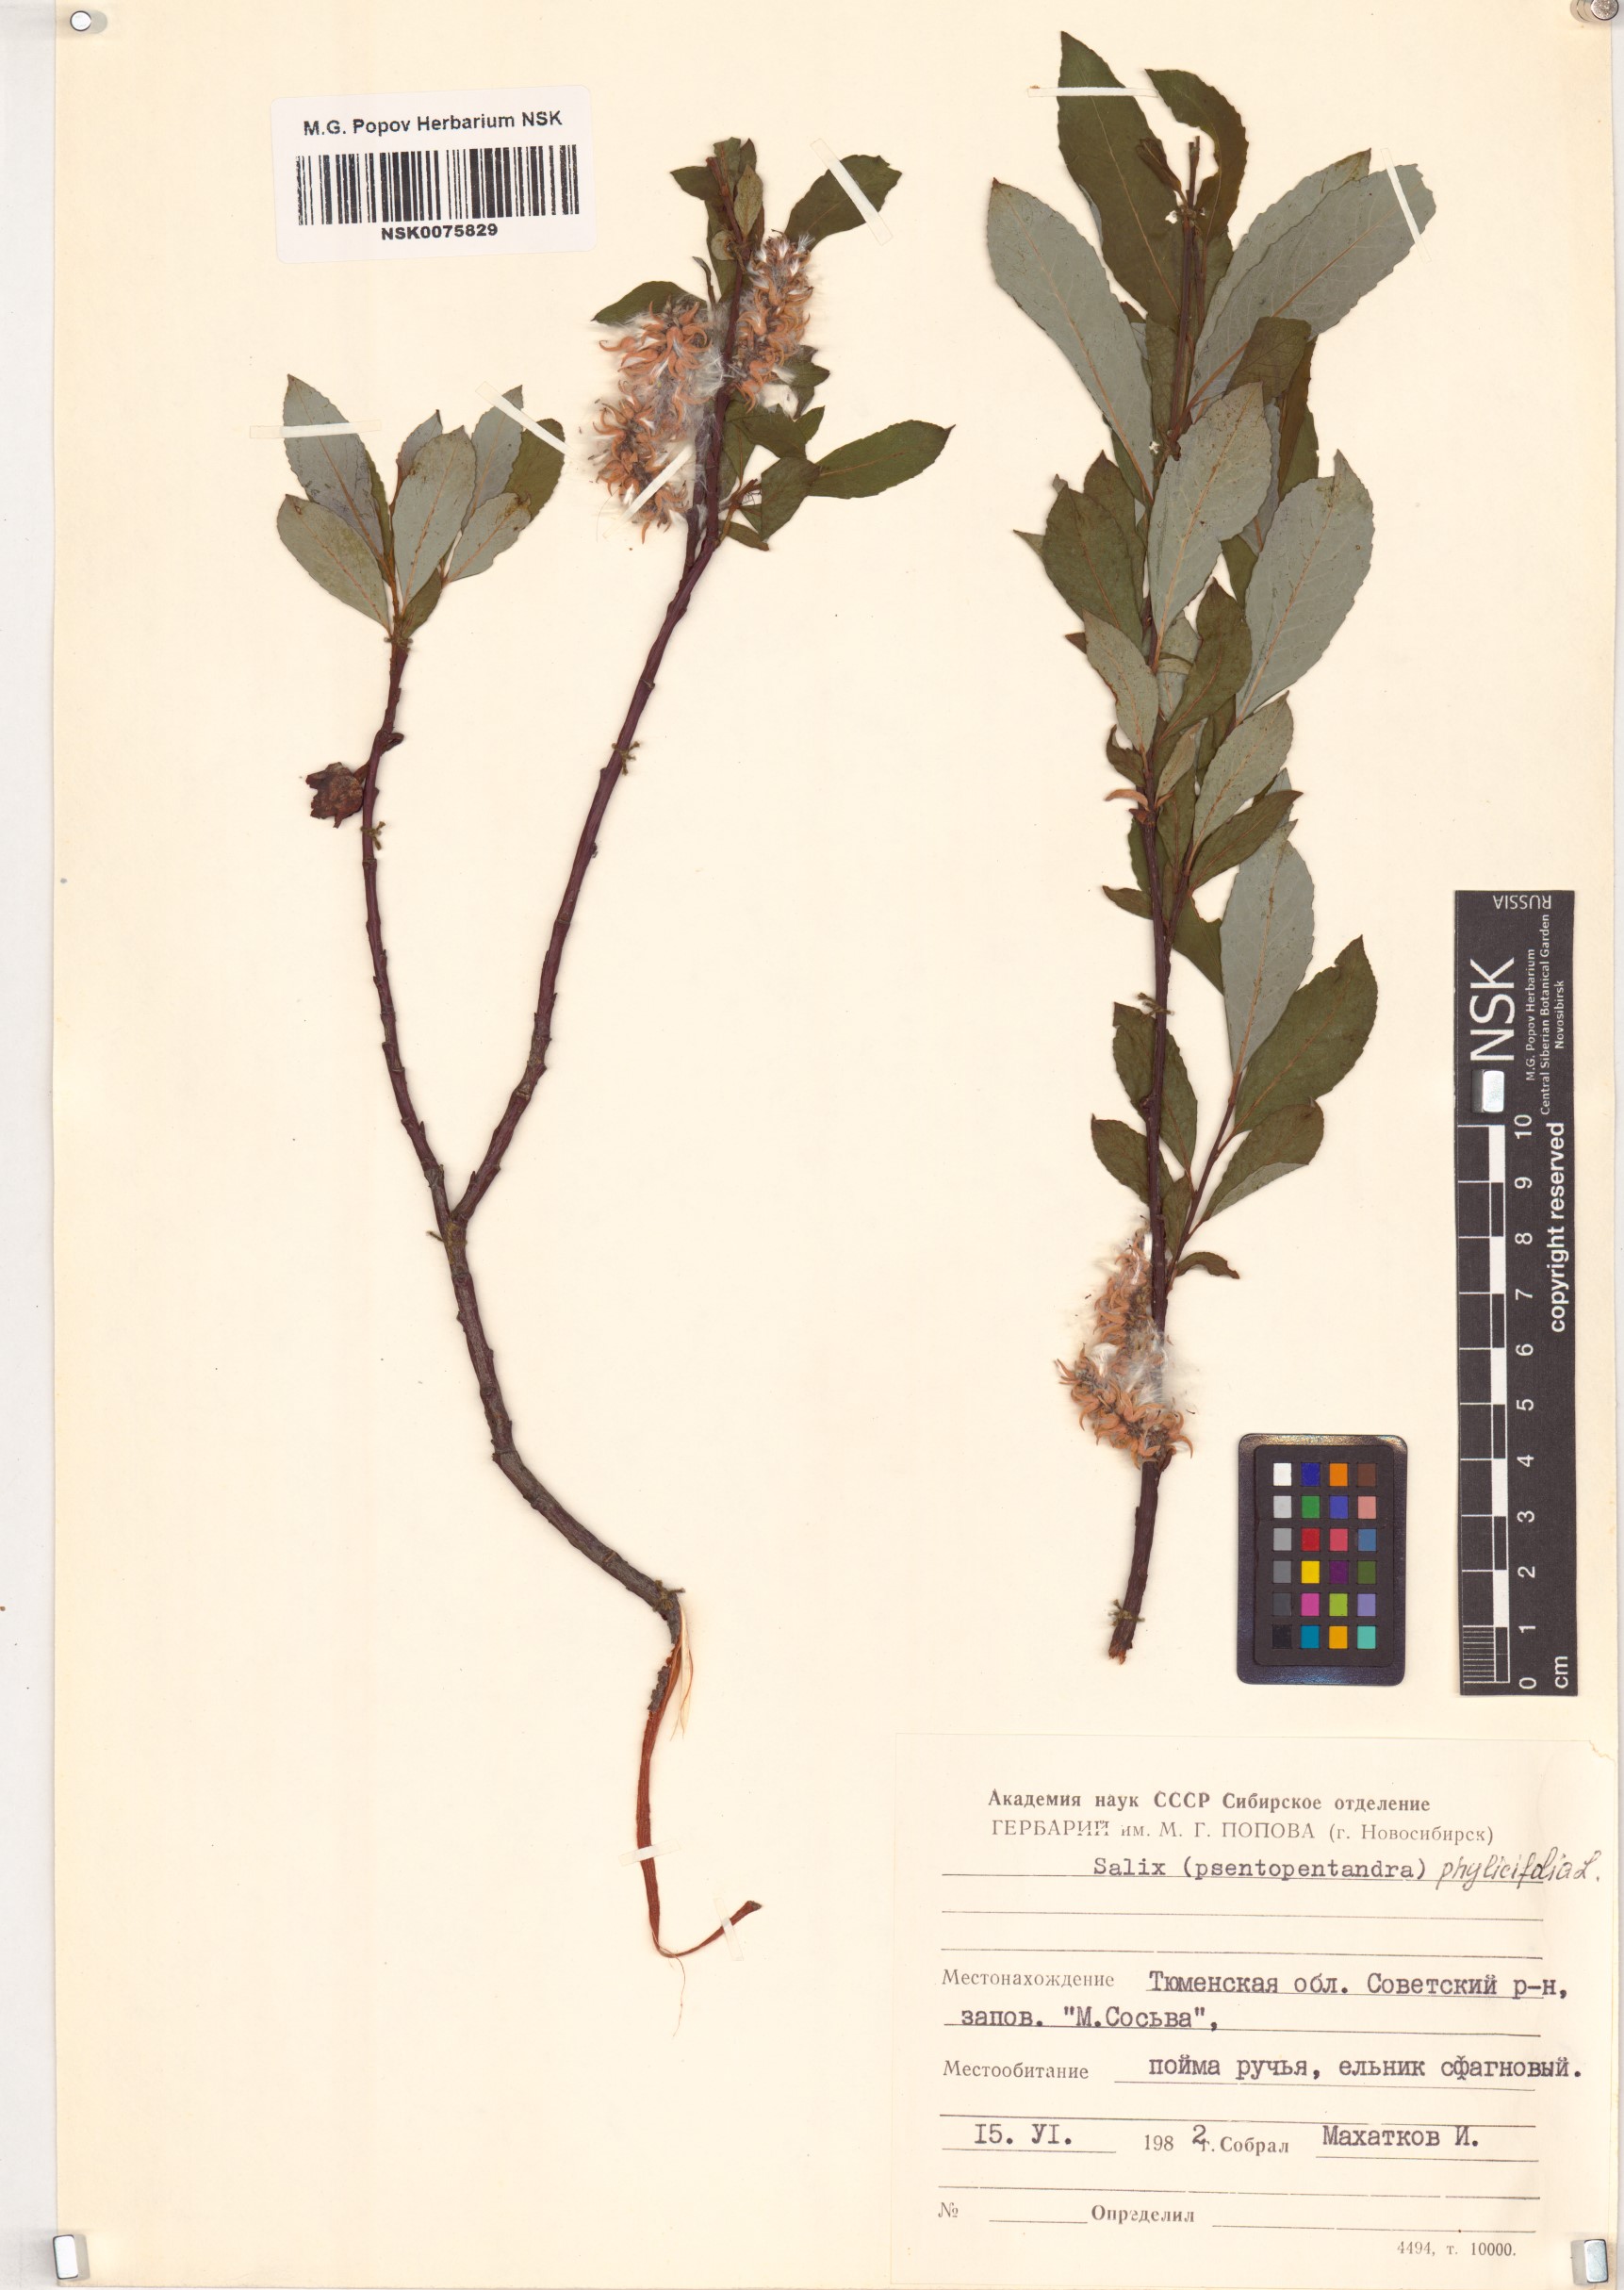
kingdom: Plantae
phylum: Tracheophyta
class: Magnoliopsida
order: Malpighiales
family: Salicaceae
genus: Salix
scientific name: Salix phylicifolia
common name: Tea-leaved willow
